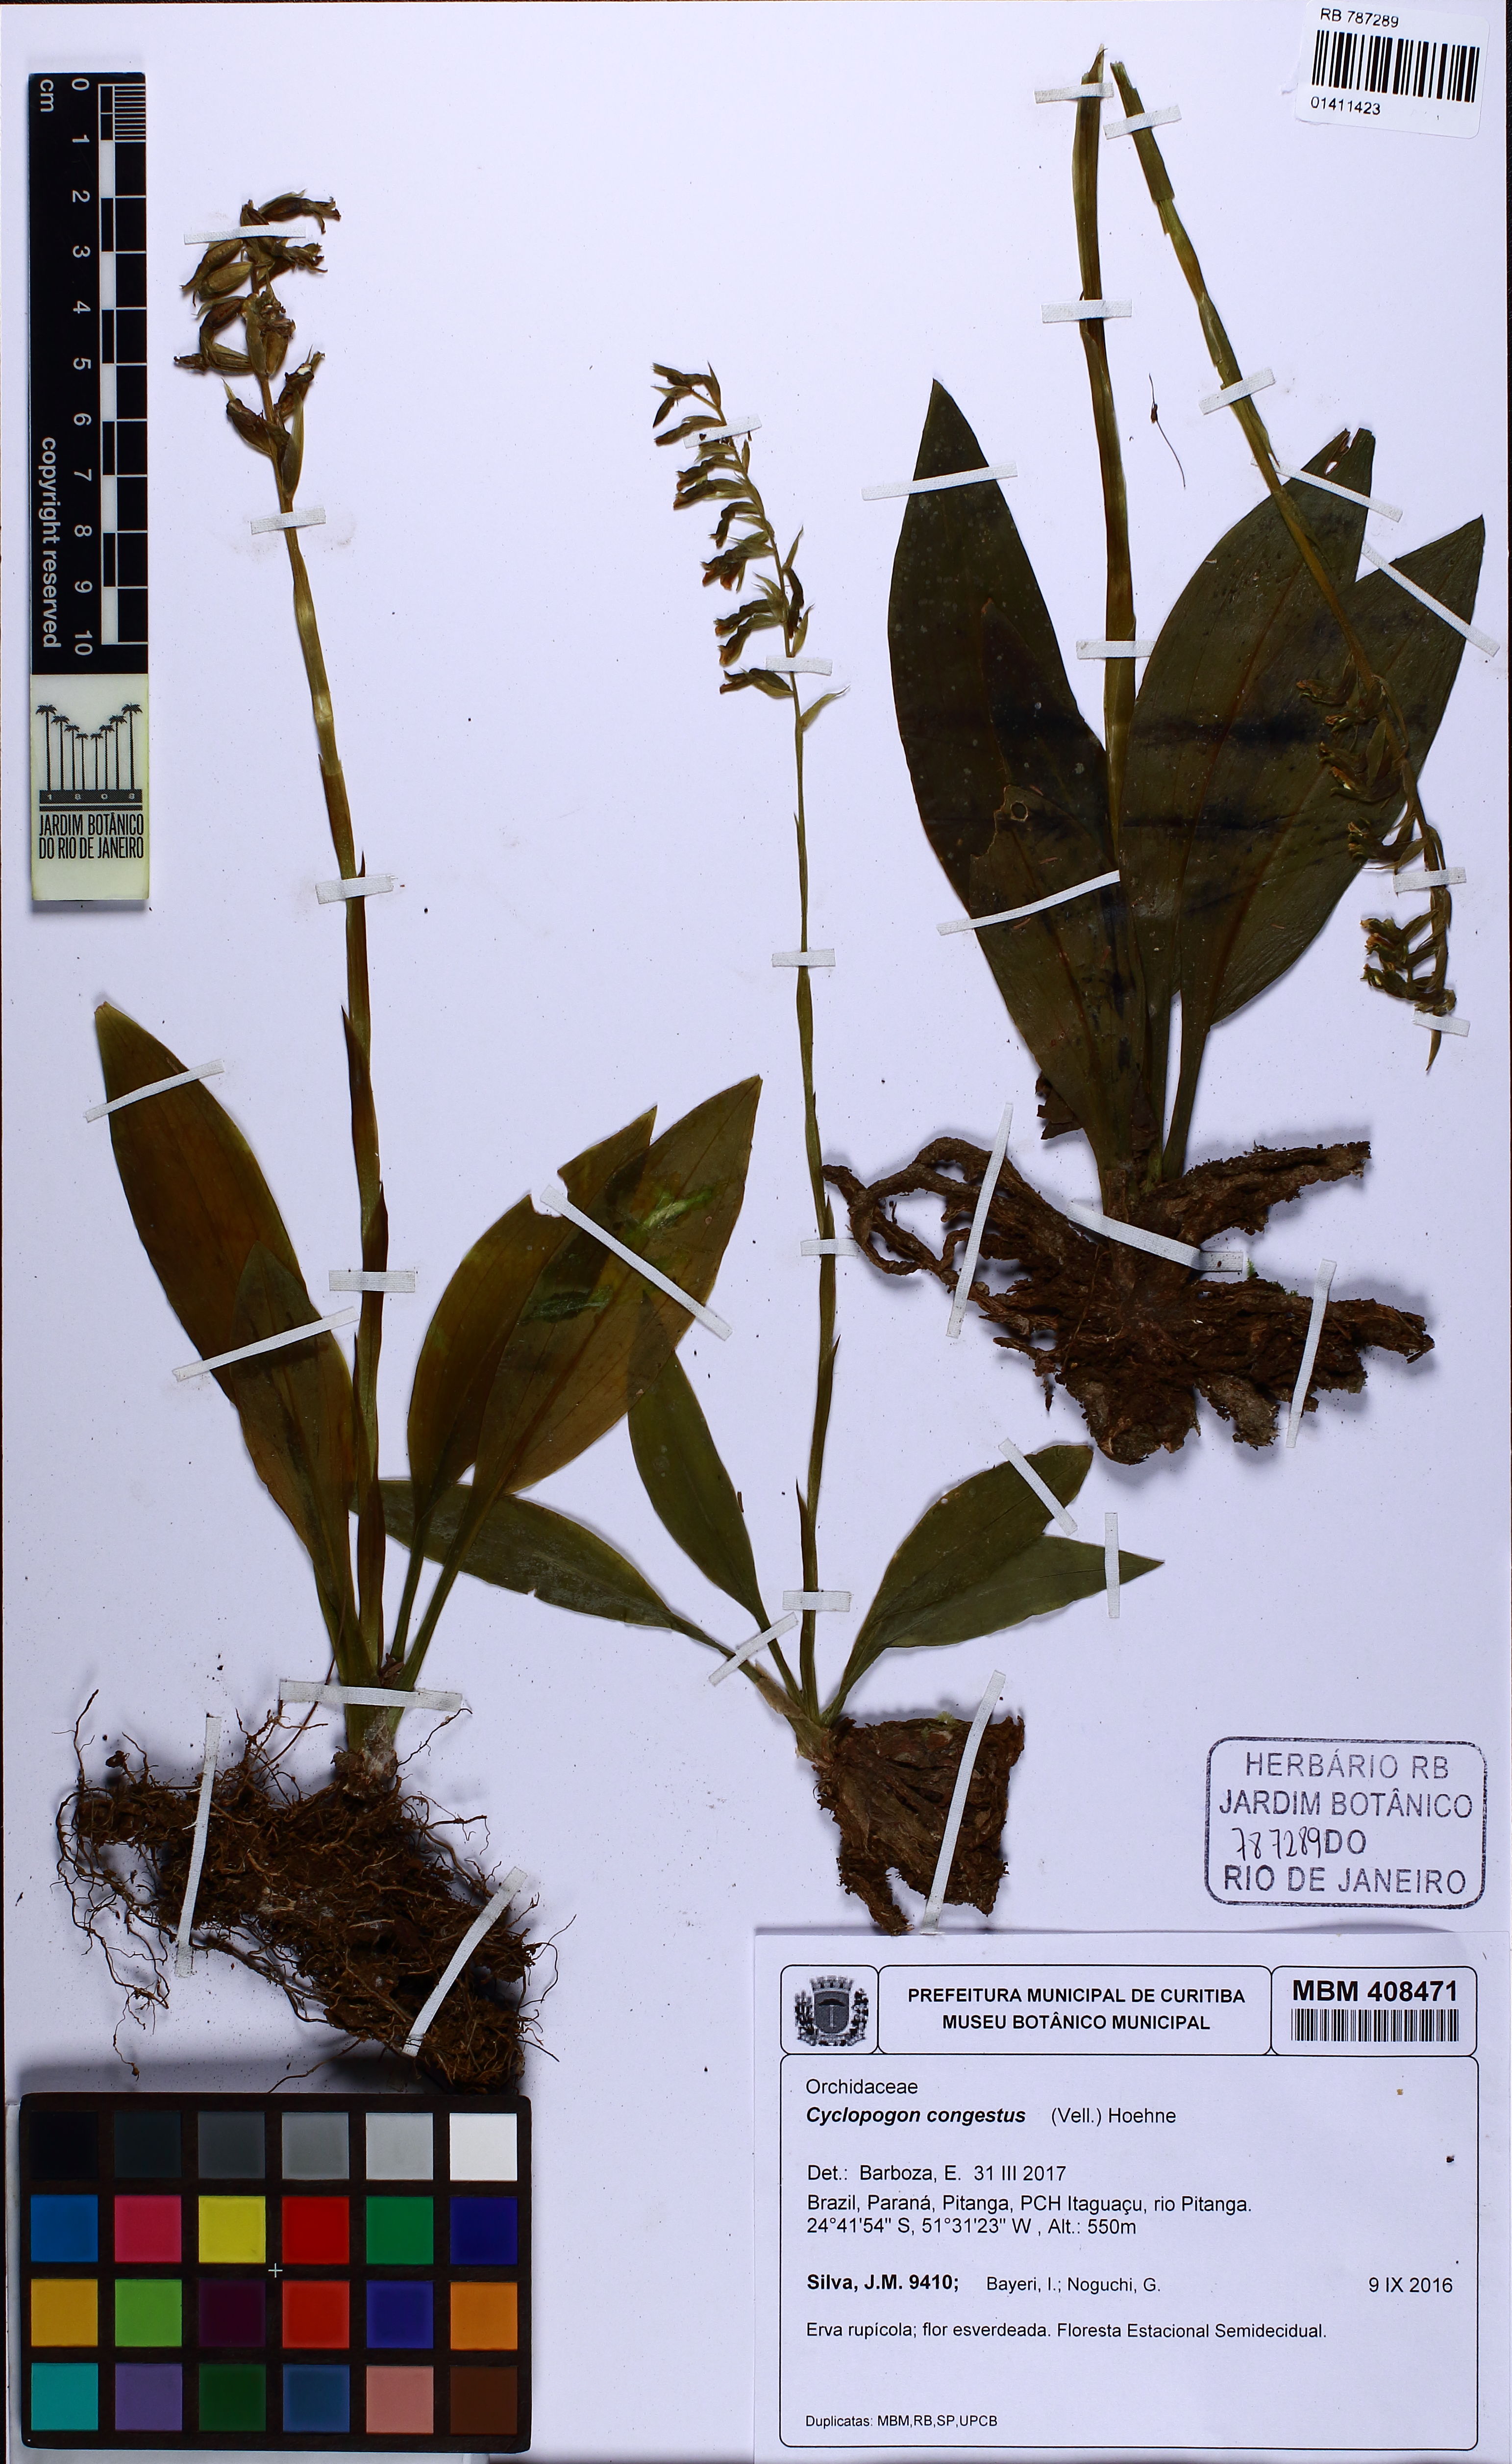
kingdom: Plantae
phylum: Tracheophyta
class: Liliopsida
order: Asparagales
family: Orchidaceae
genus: Cyclopogon
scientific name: Cyclopogon congestus
